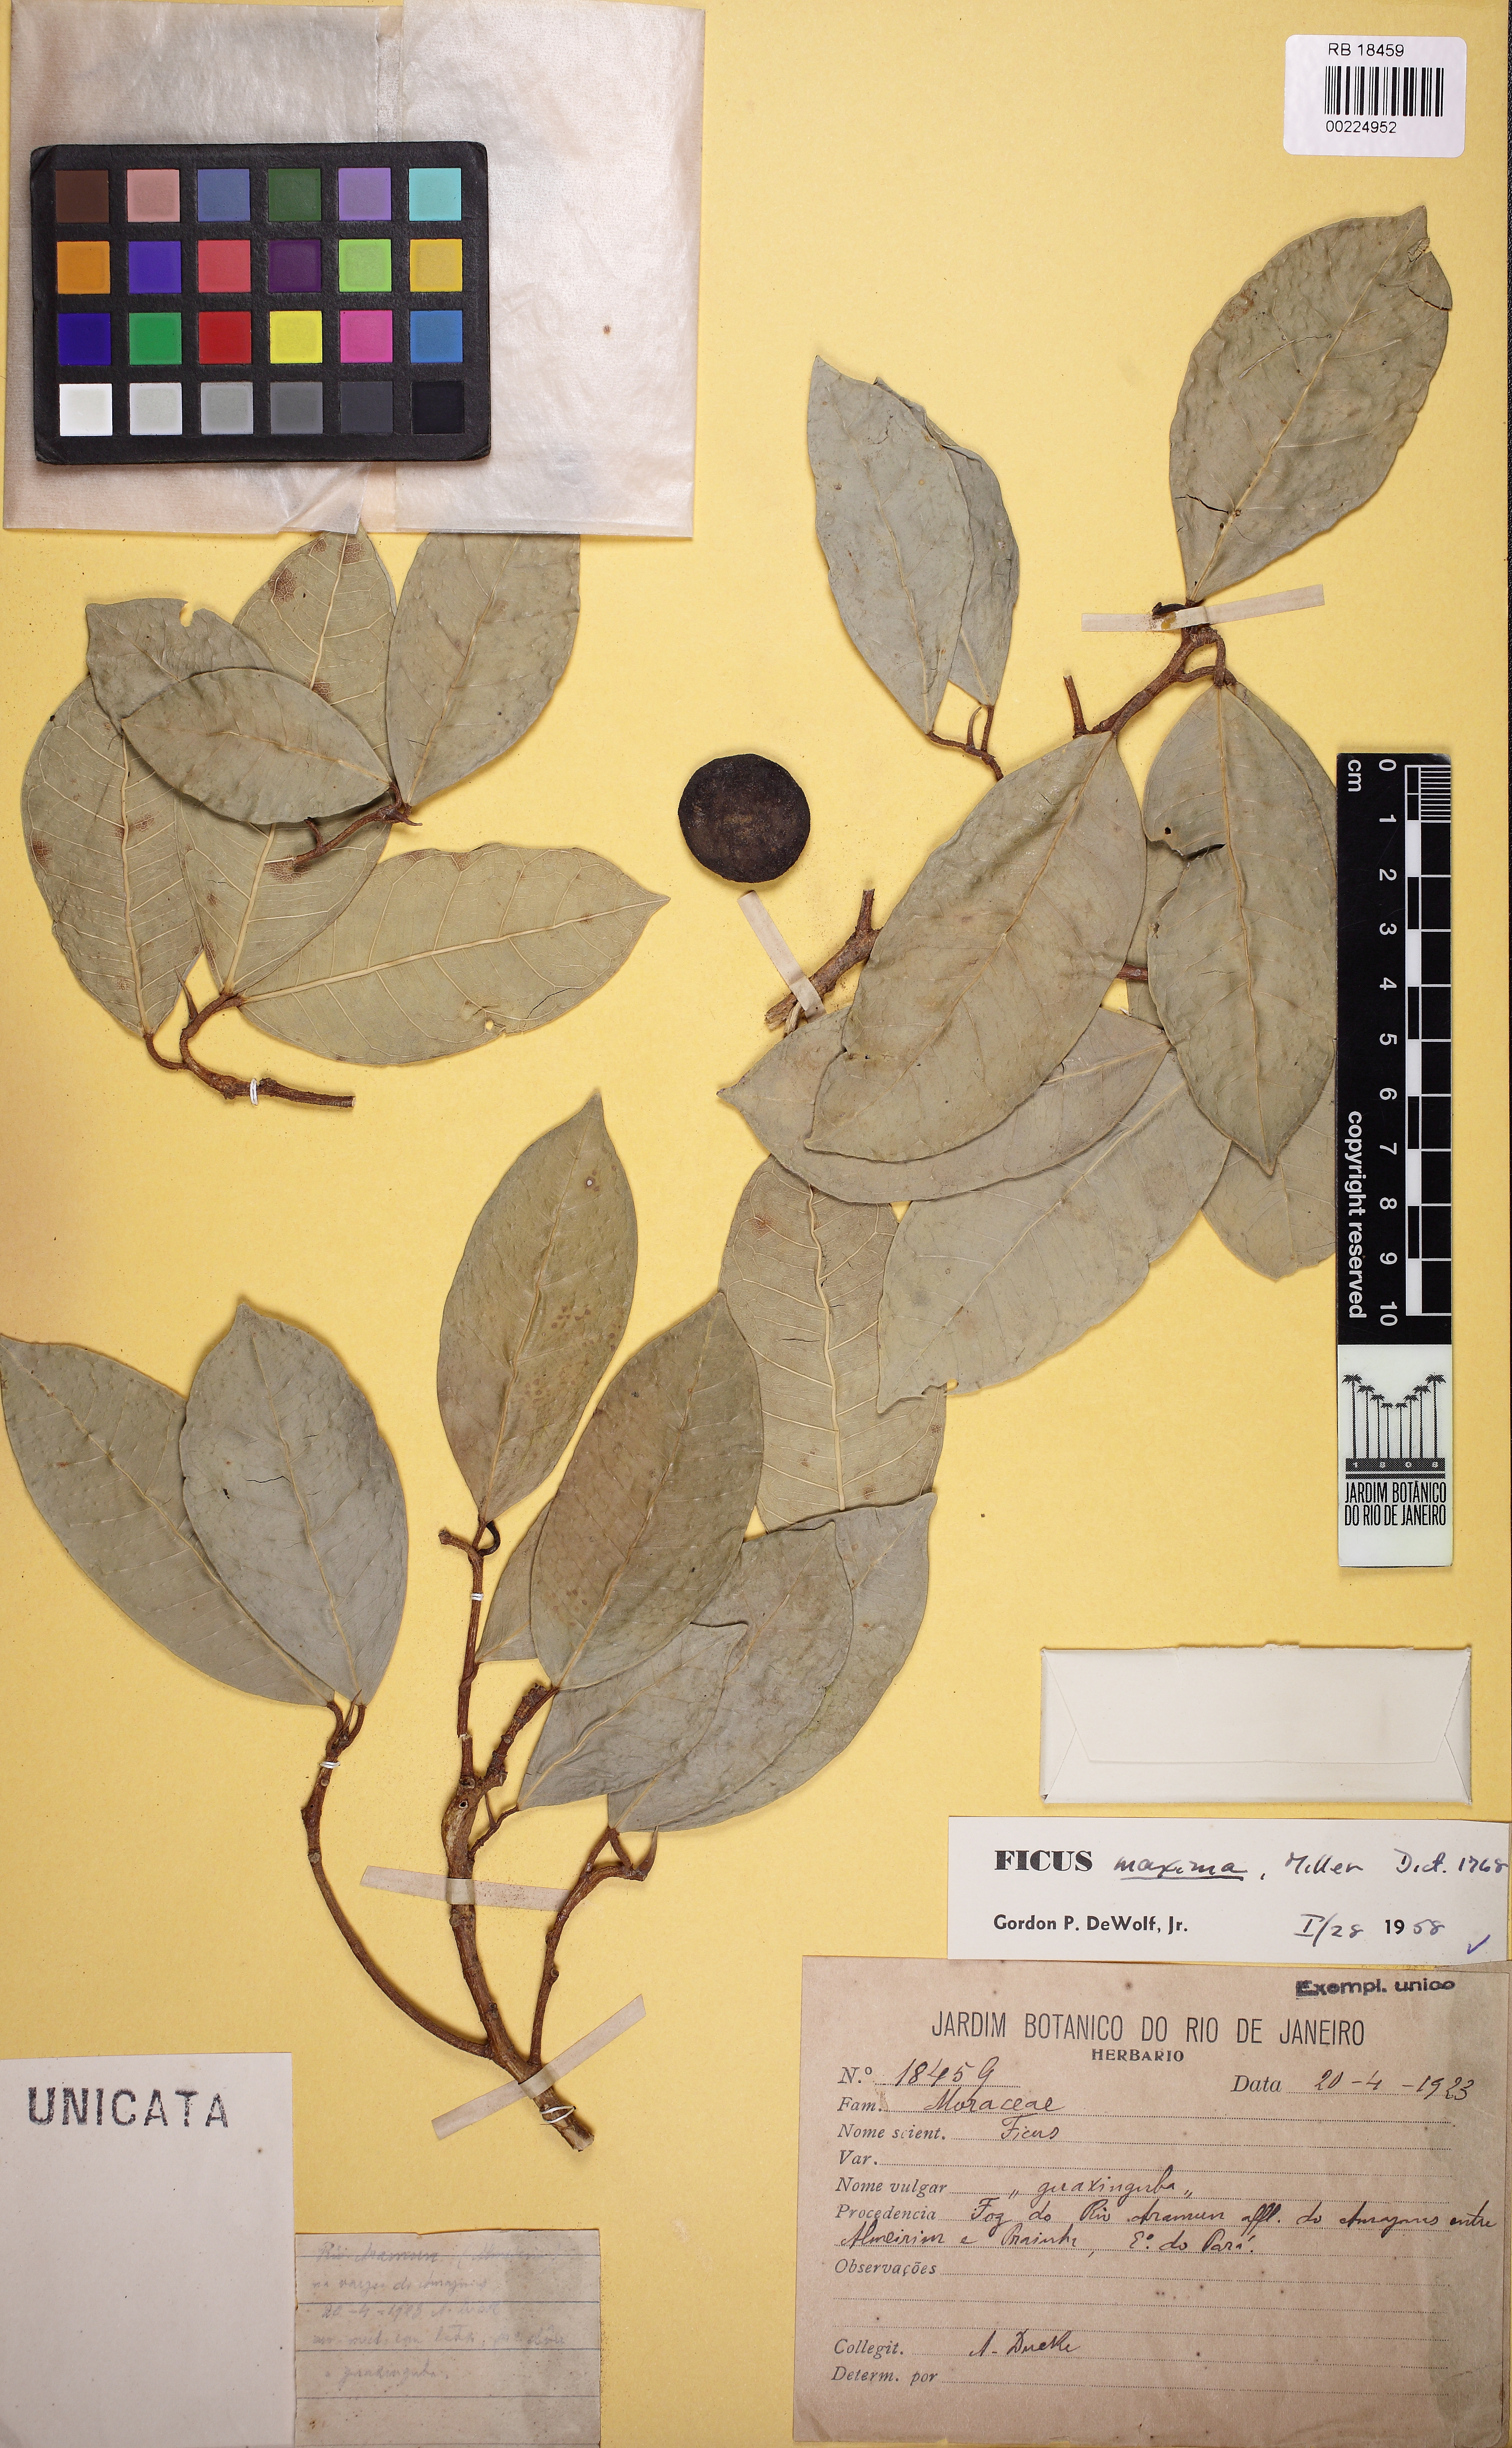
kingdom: Plantae
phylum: Tracheophyta
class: Magnoliopsida
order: Rosales
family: Moraceae
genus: Ficus
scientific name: Ficus maxima
